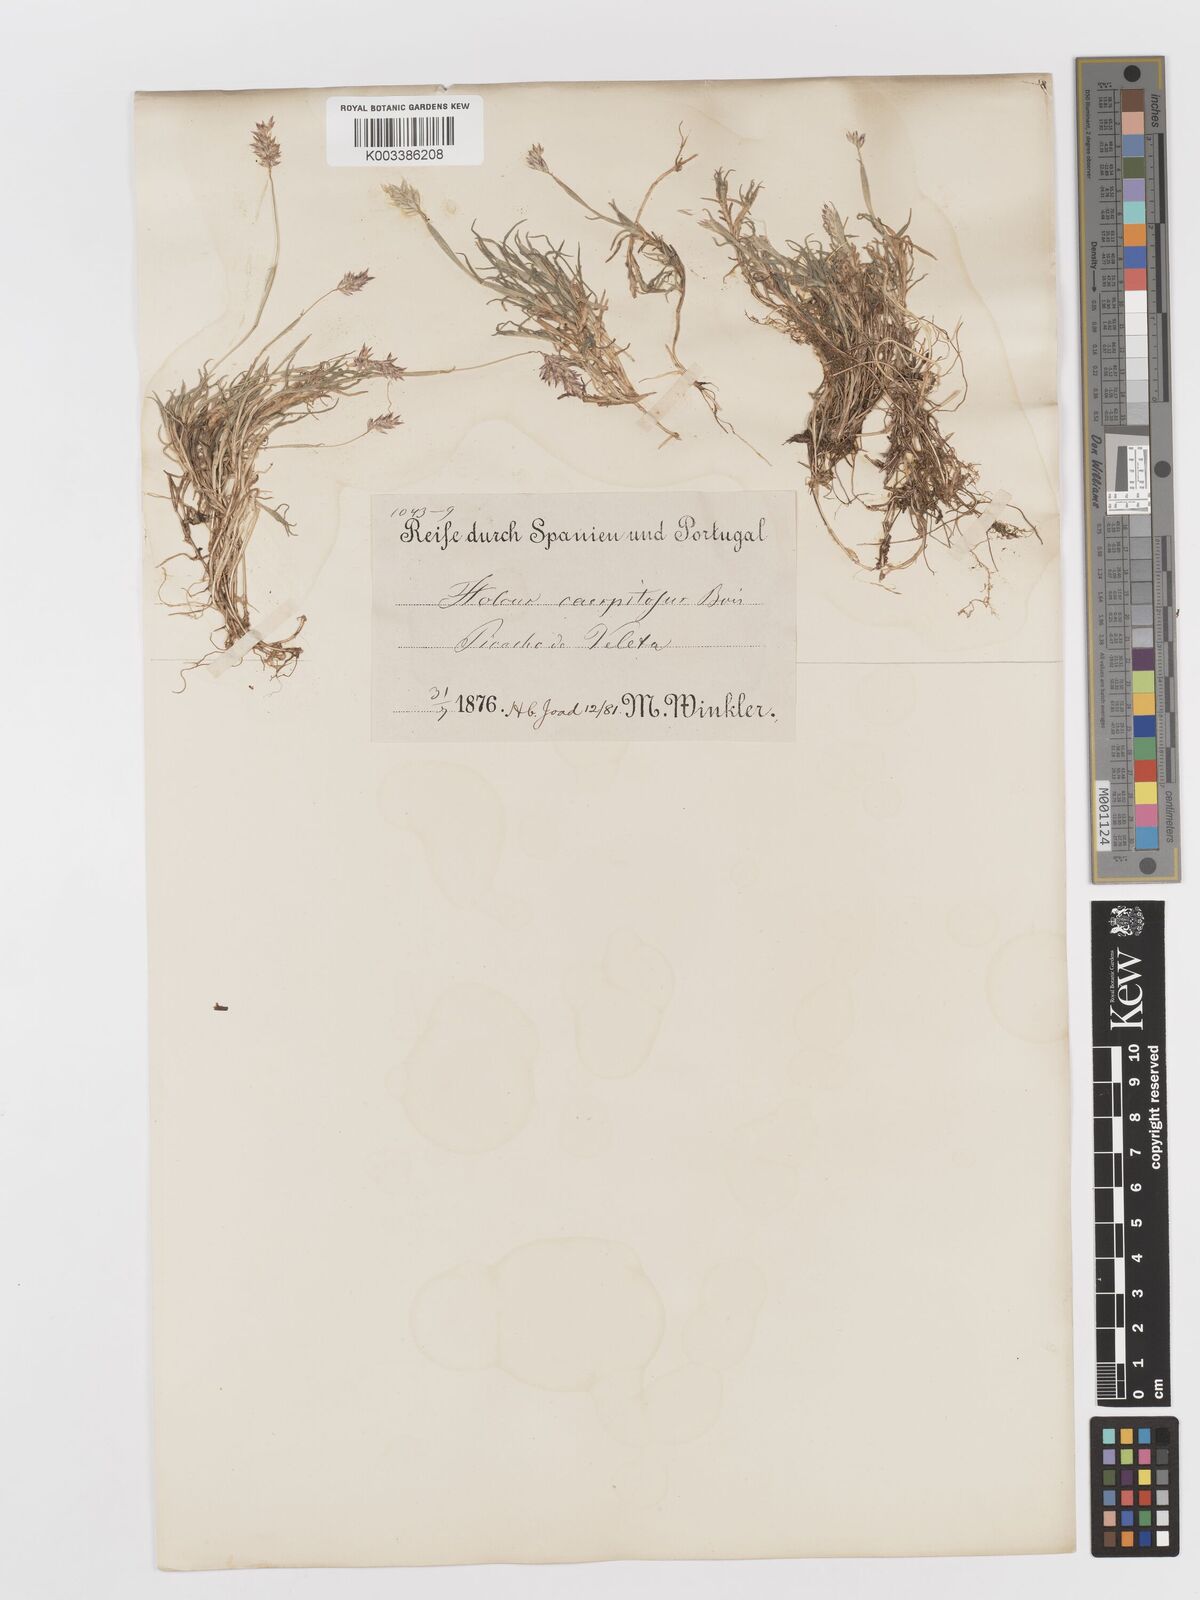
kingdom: Plantae
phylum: Tracheophyta
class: Liliopsida
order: Poales
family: Poaceae
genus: Holcus
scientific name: Holcus caespitosus
